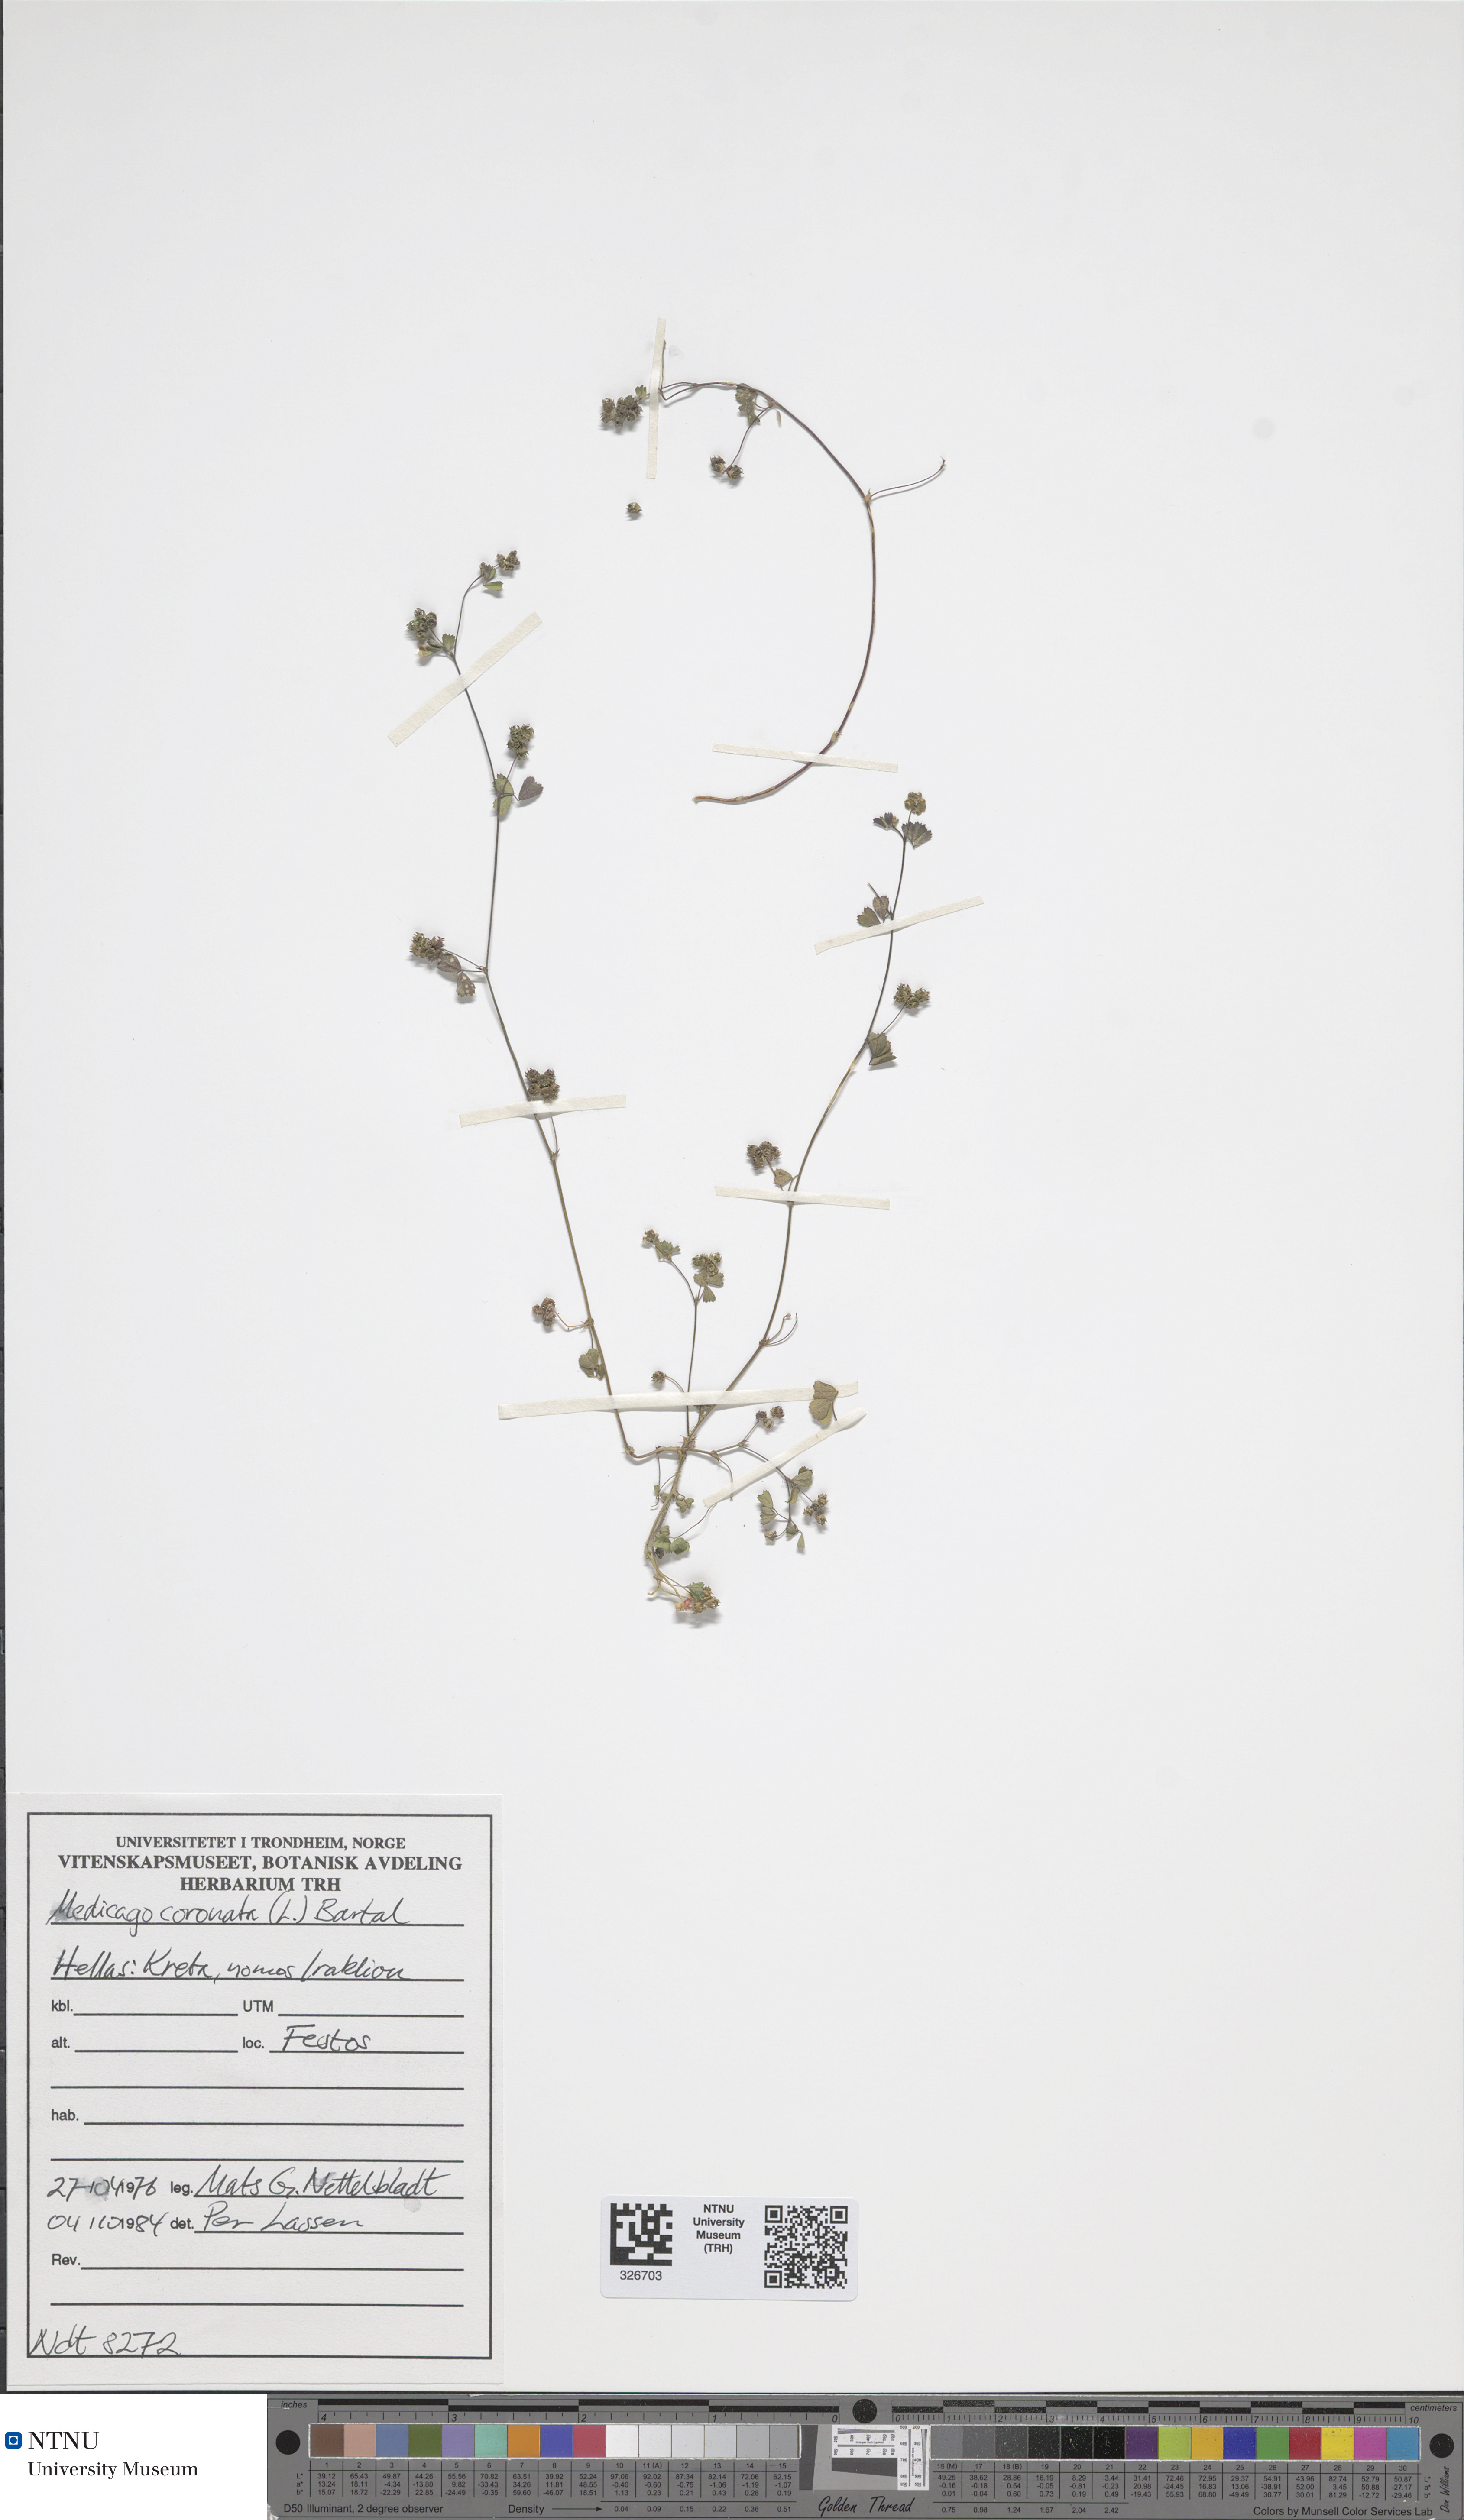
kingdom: Plantae
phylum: Tracheophyta
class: Magnoliopsida
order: Fabales
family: Fabaceae
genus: Medicago
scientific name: Medicago coronata
